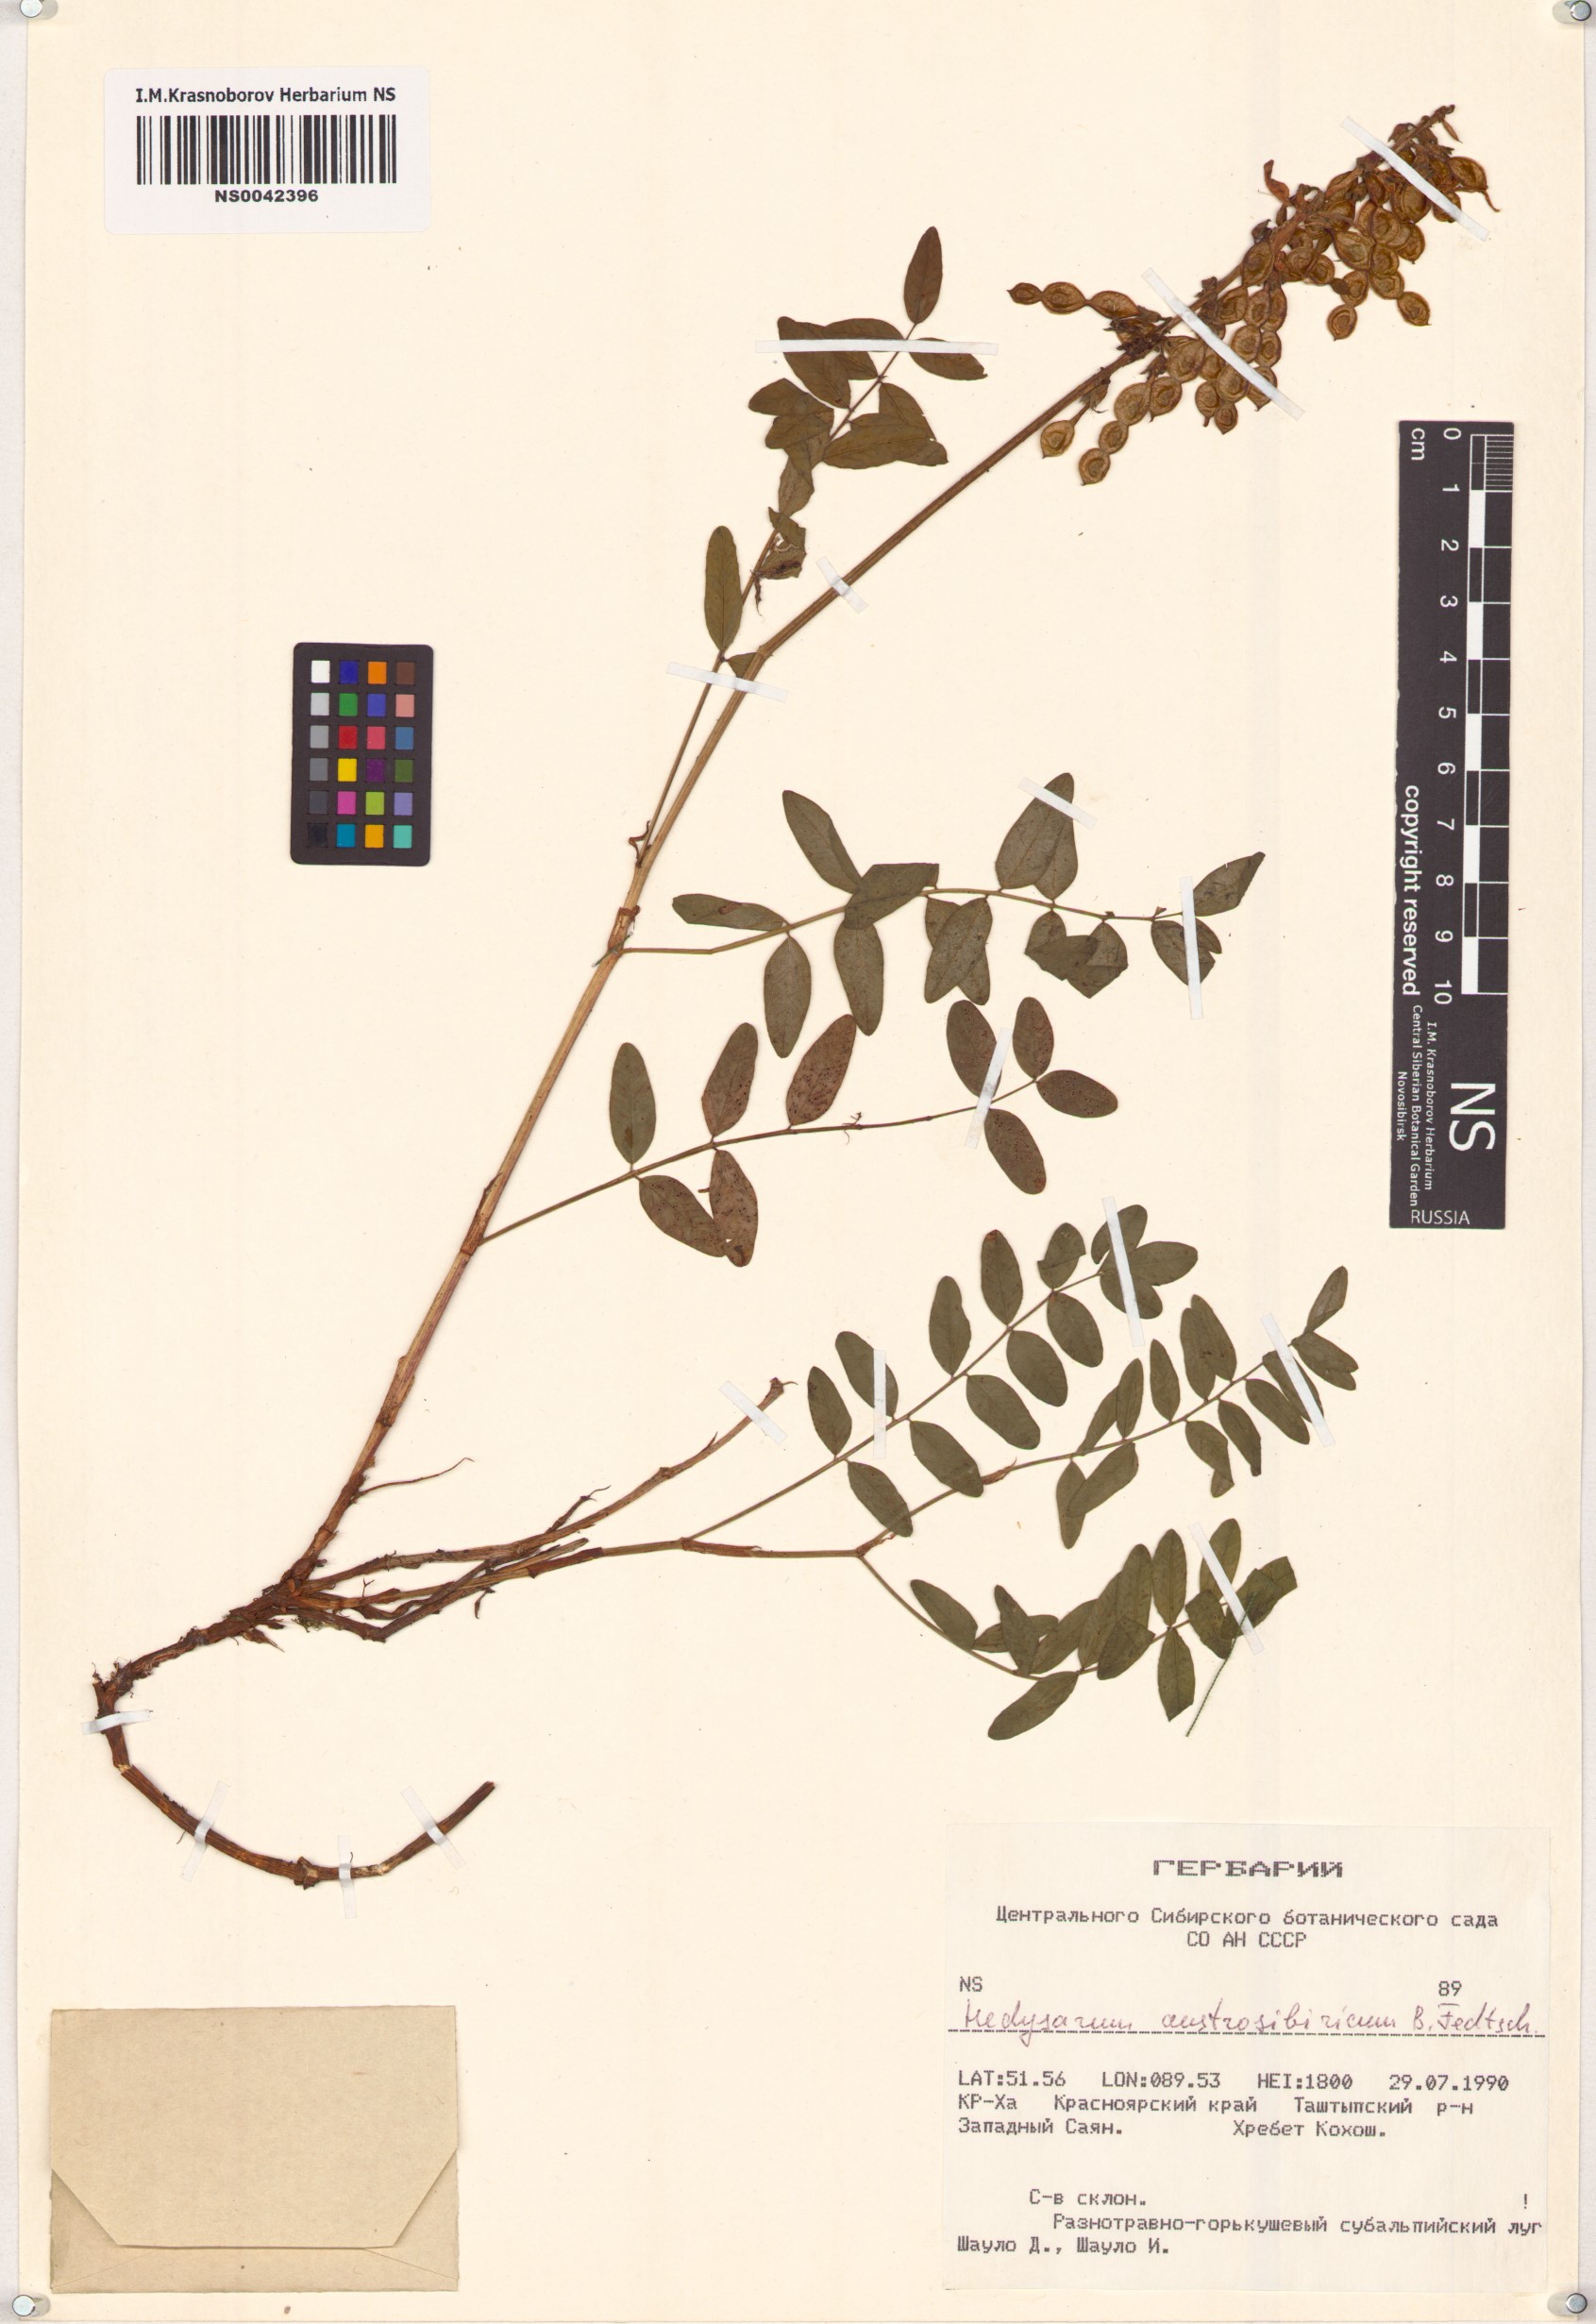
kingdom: Plantae
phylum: Tracheophyta
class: Magnoliopsida
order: Fabales
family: Fabaceae
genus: Hedysarum
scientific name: Hedysarum neglectum
